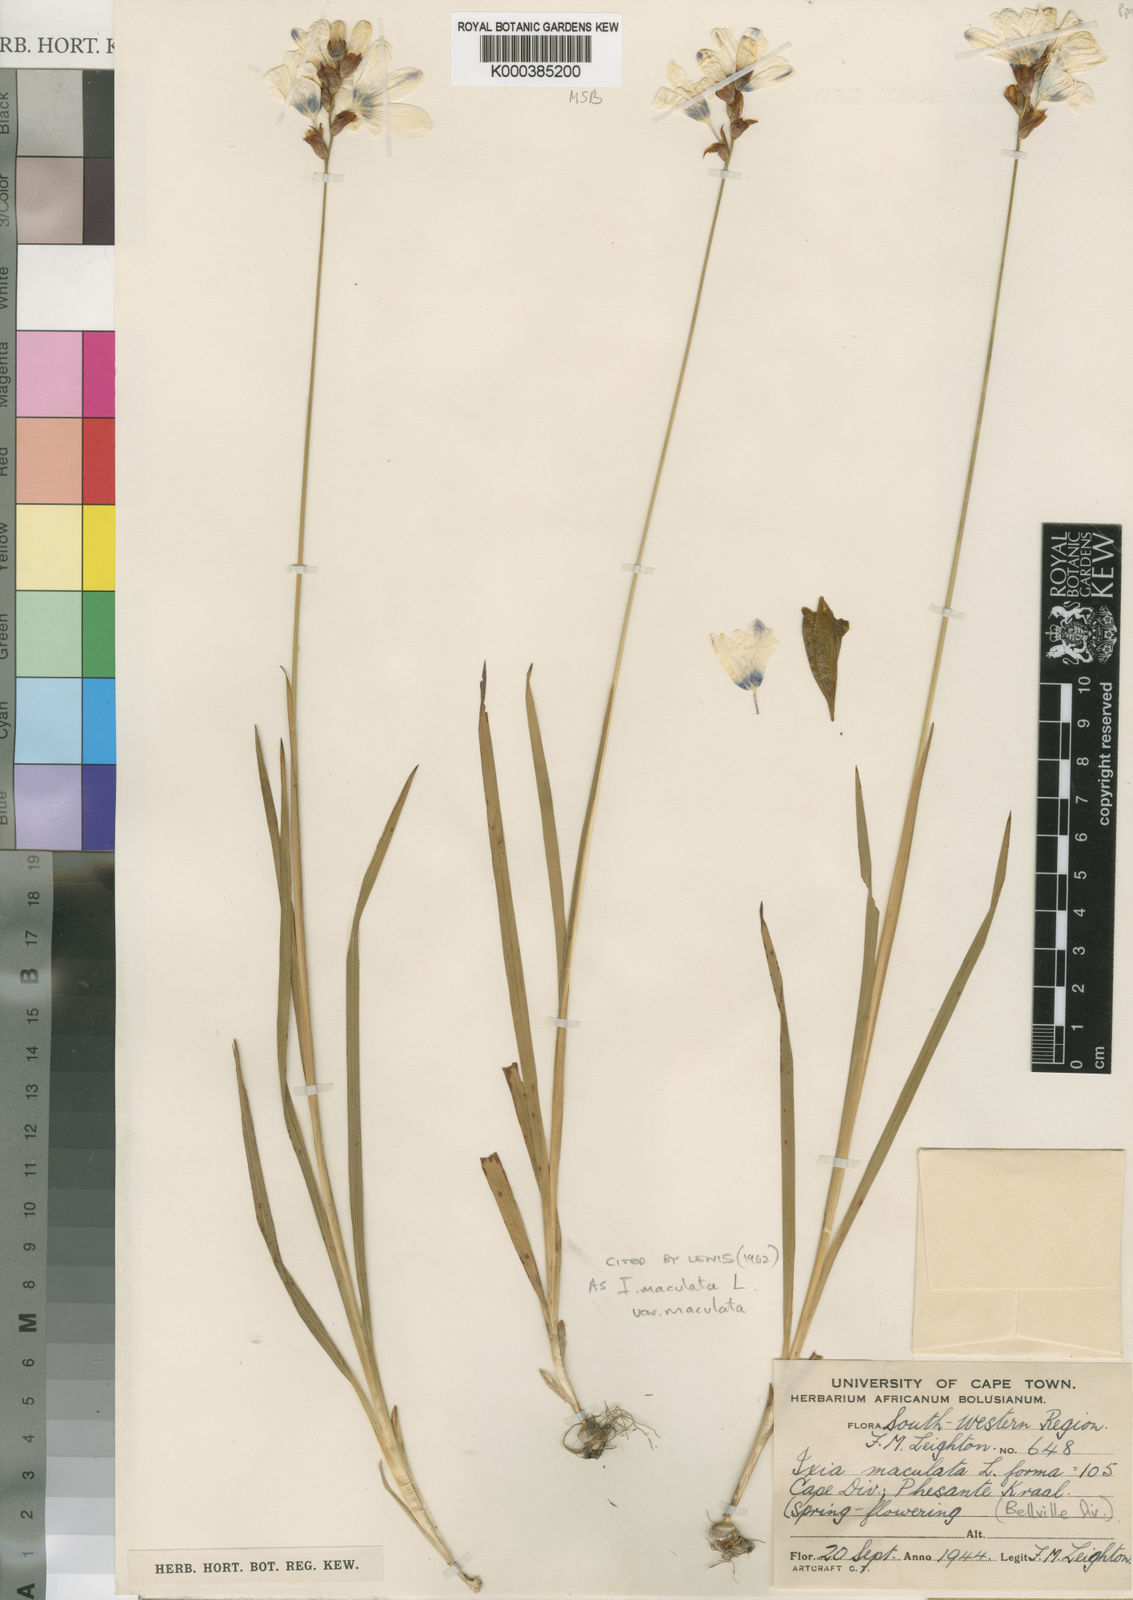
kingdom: Plantae
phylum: Tracheophyta
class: Liliopsida
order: Asparagales
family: Iridaceae
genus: Ixia
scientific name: Ixia maculata
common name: Spotted african cornlily
